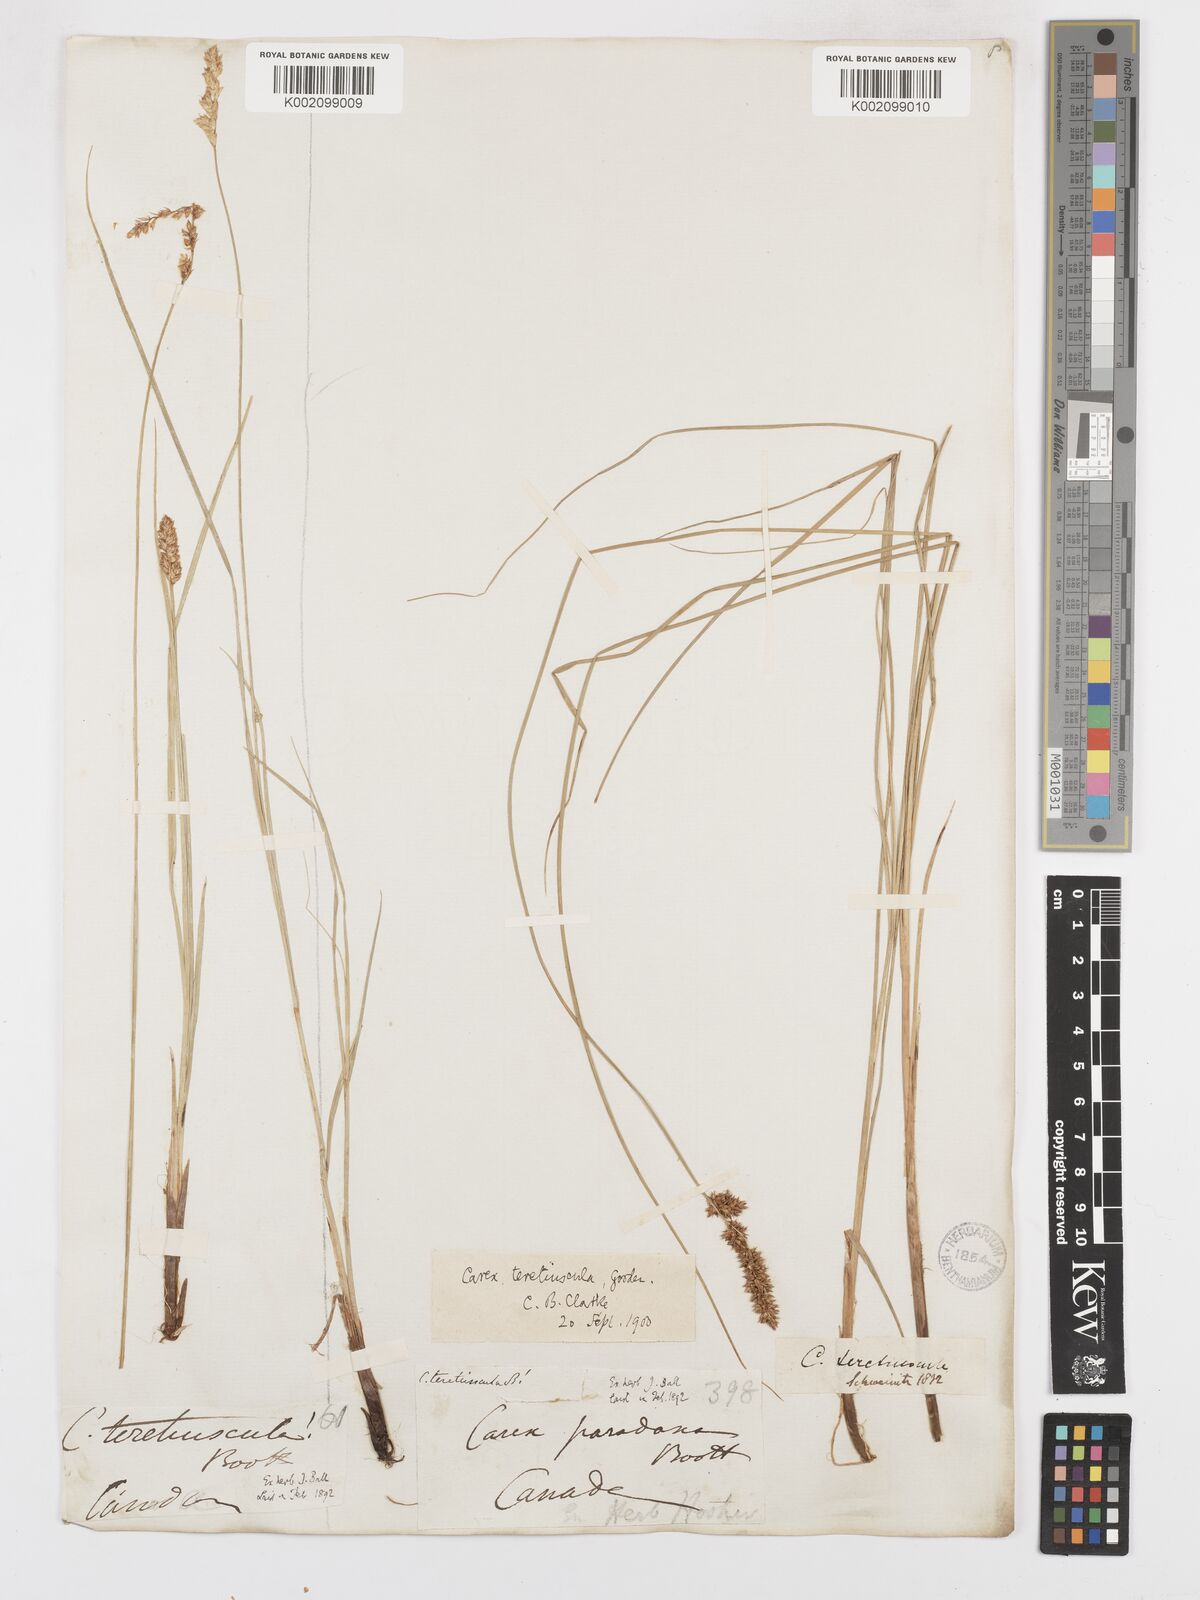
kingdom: Plantae
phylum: Tracheophyta
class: Liliopsida
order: Poales
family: Cyperaceae
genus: Carex
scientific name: Carex diandra
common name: Lesser tussock-sedge
